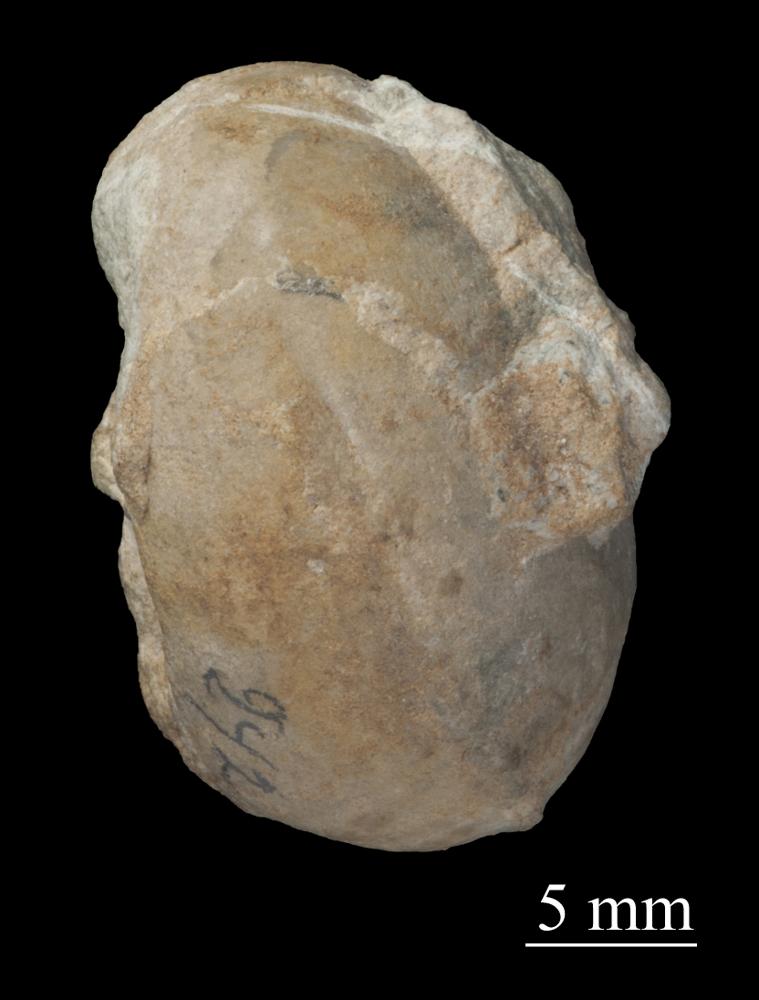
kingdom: Animalia
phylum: Mollusca
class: Gastropoda
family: Bucaniidae
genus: Bucania
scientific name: Bucania Bellerophon radiata
